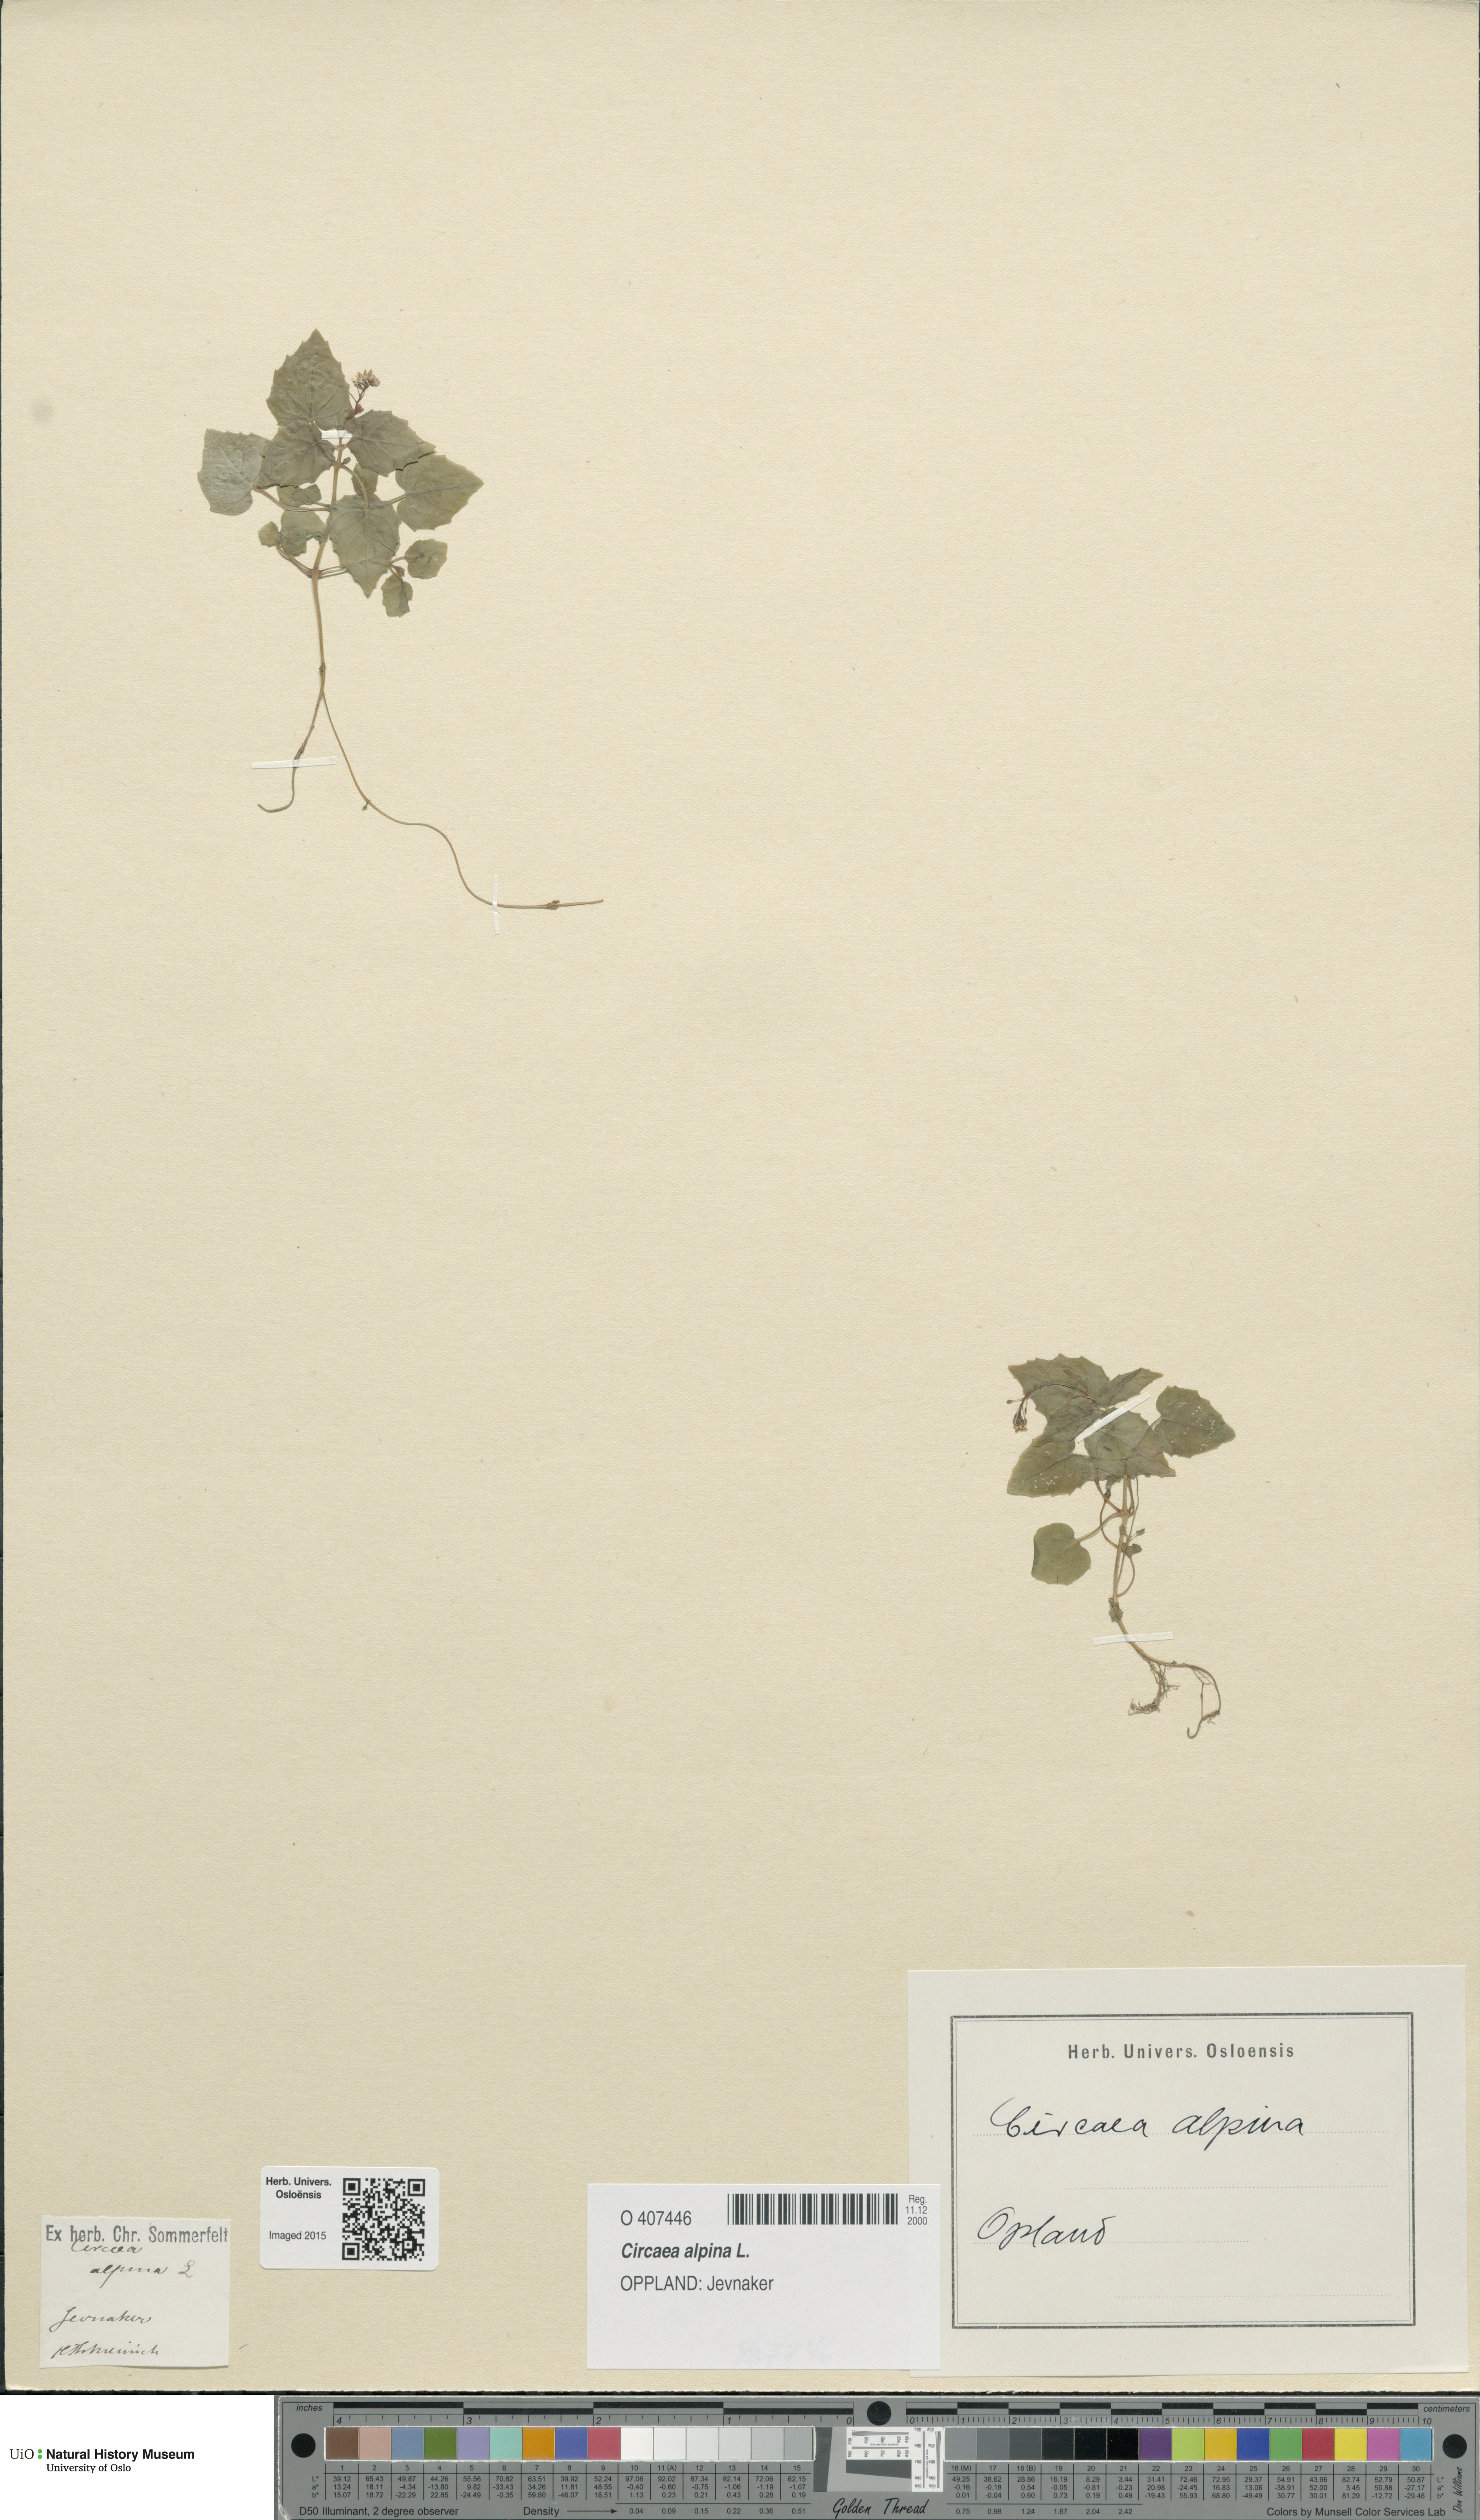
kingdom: Plantae
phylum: Tracheophyta
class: Magnoliopsida
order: Myrtales
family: Onagraceae
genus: Circaea
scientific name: Circaea alpina
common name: Alpine enchanter's-nightshade
